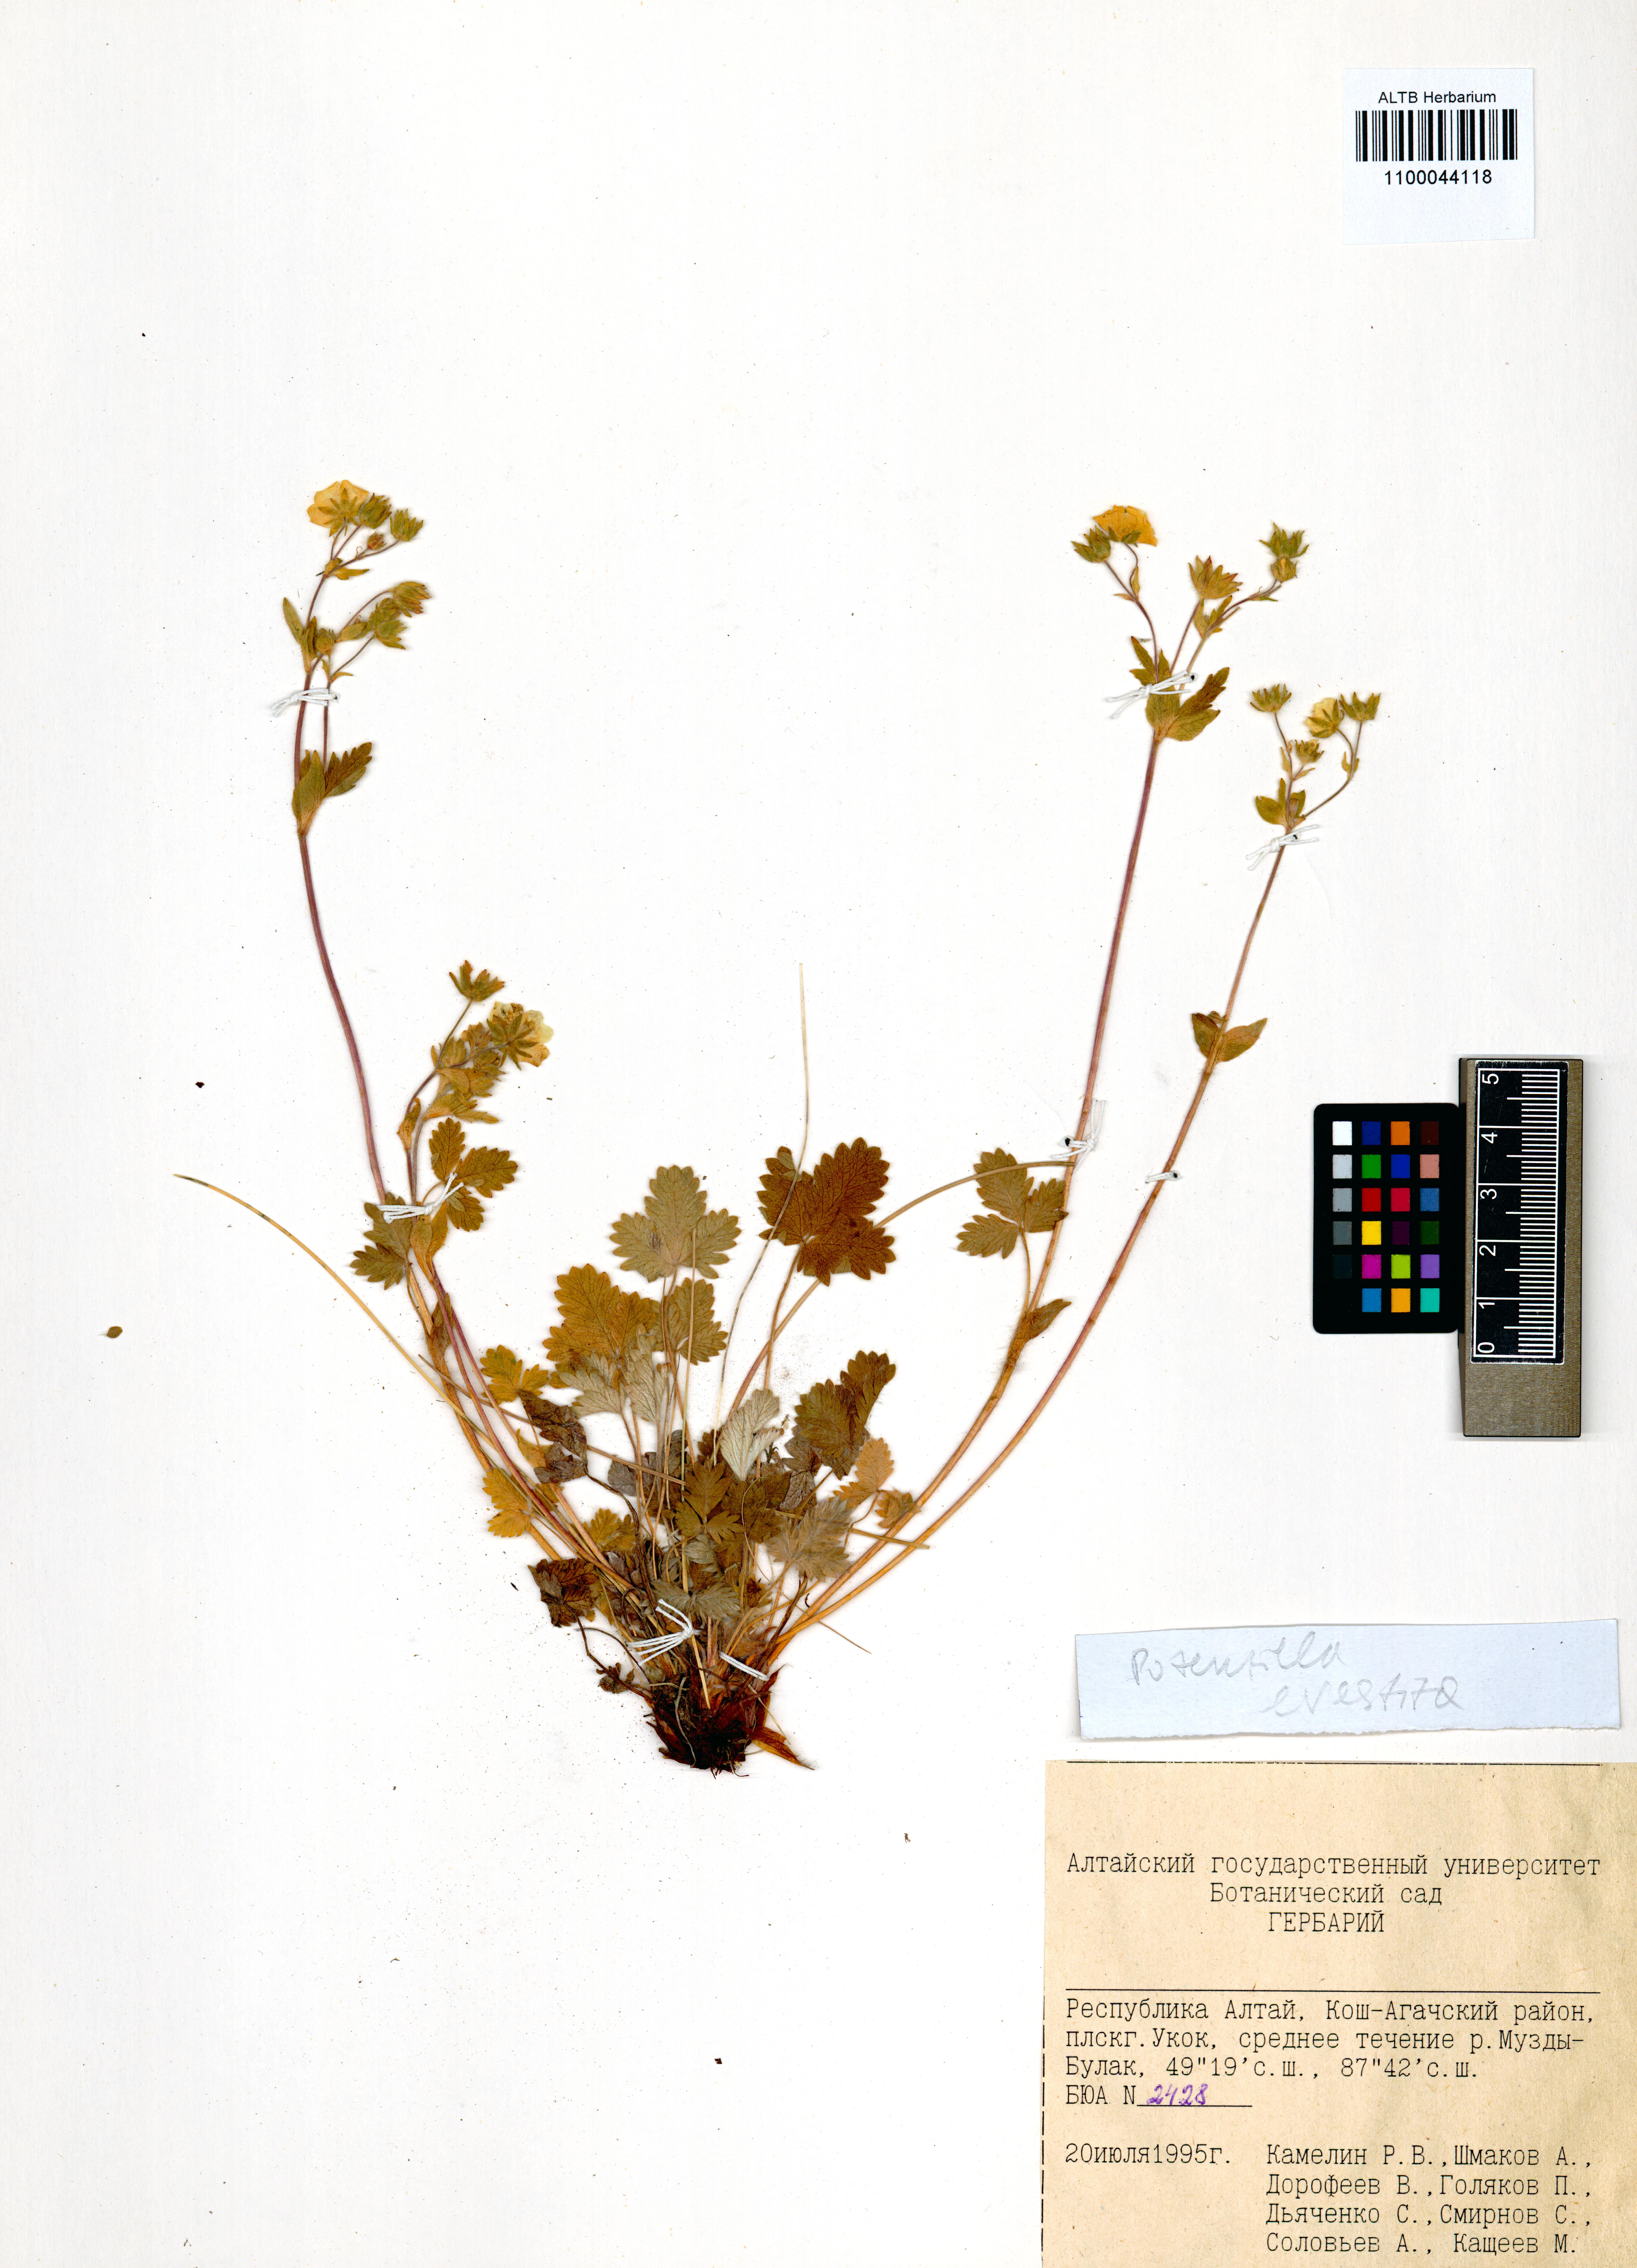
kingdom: Plantae
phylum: Tracheophyta
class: Magnoliopsida
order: Rosales
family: Rosaceae
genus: Potentilla
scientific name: Potentilla evestita
